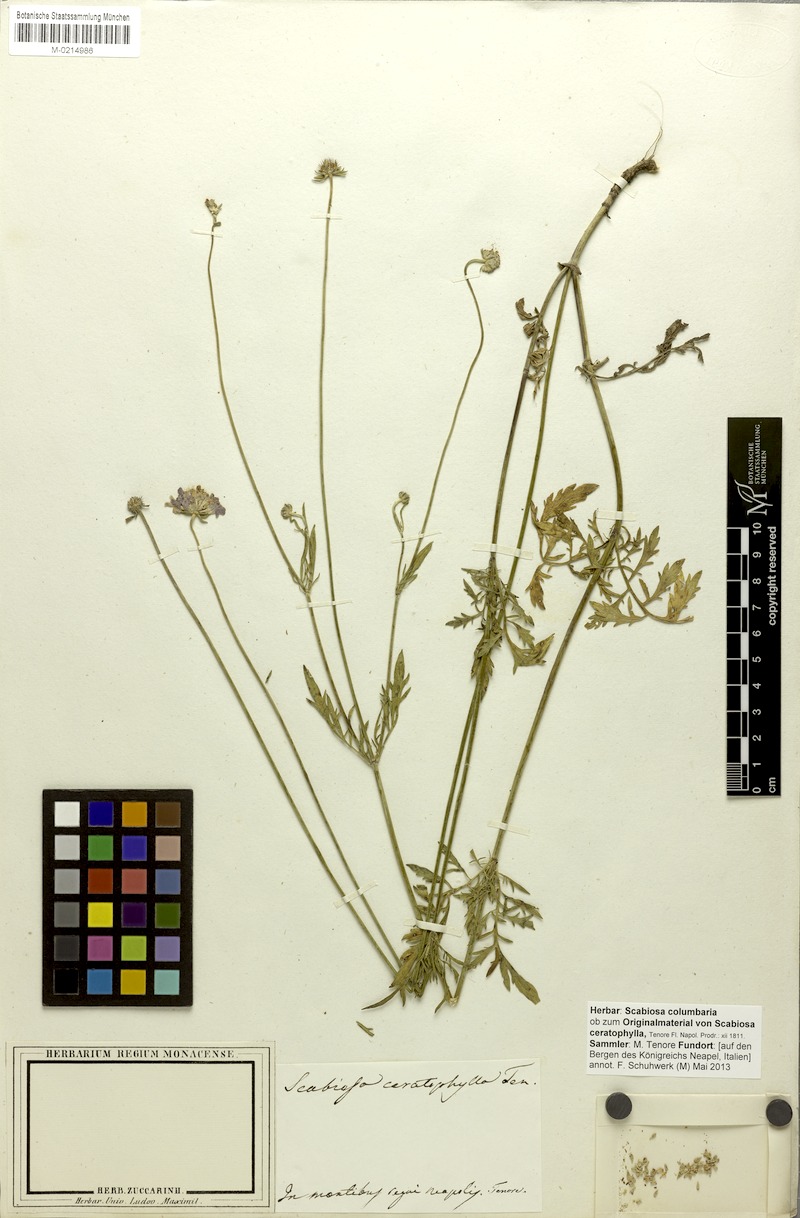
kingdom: Plantae
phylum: Tracheophyta
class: Magnoliopsida
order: Dipsacales
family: Caprifoliaceae
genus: Scabiosa
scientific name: Scabiosa columbaria
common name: Small scabious
